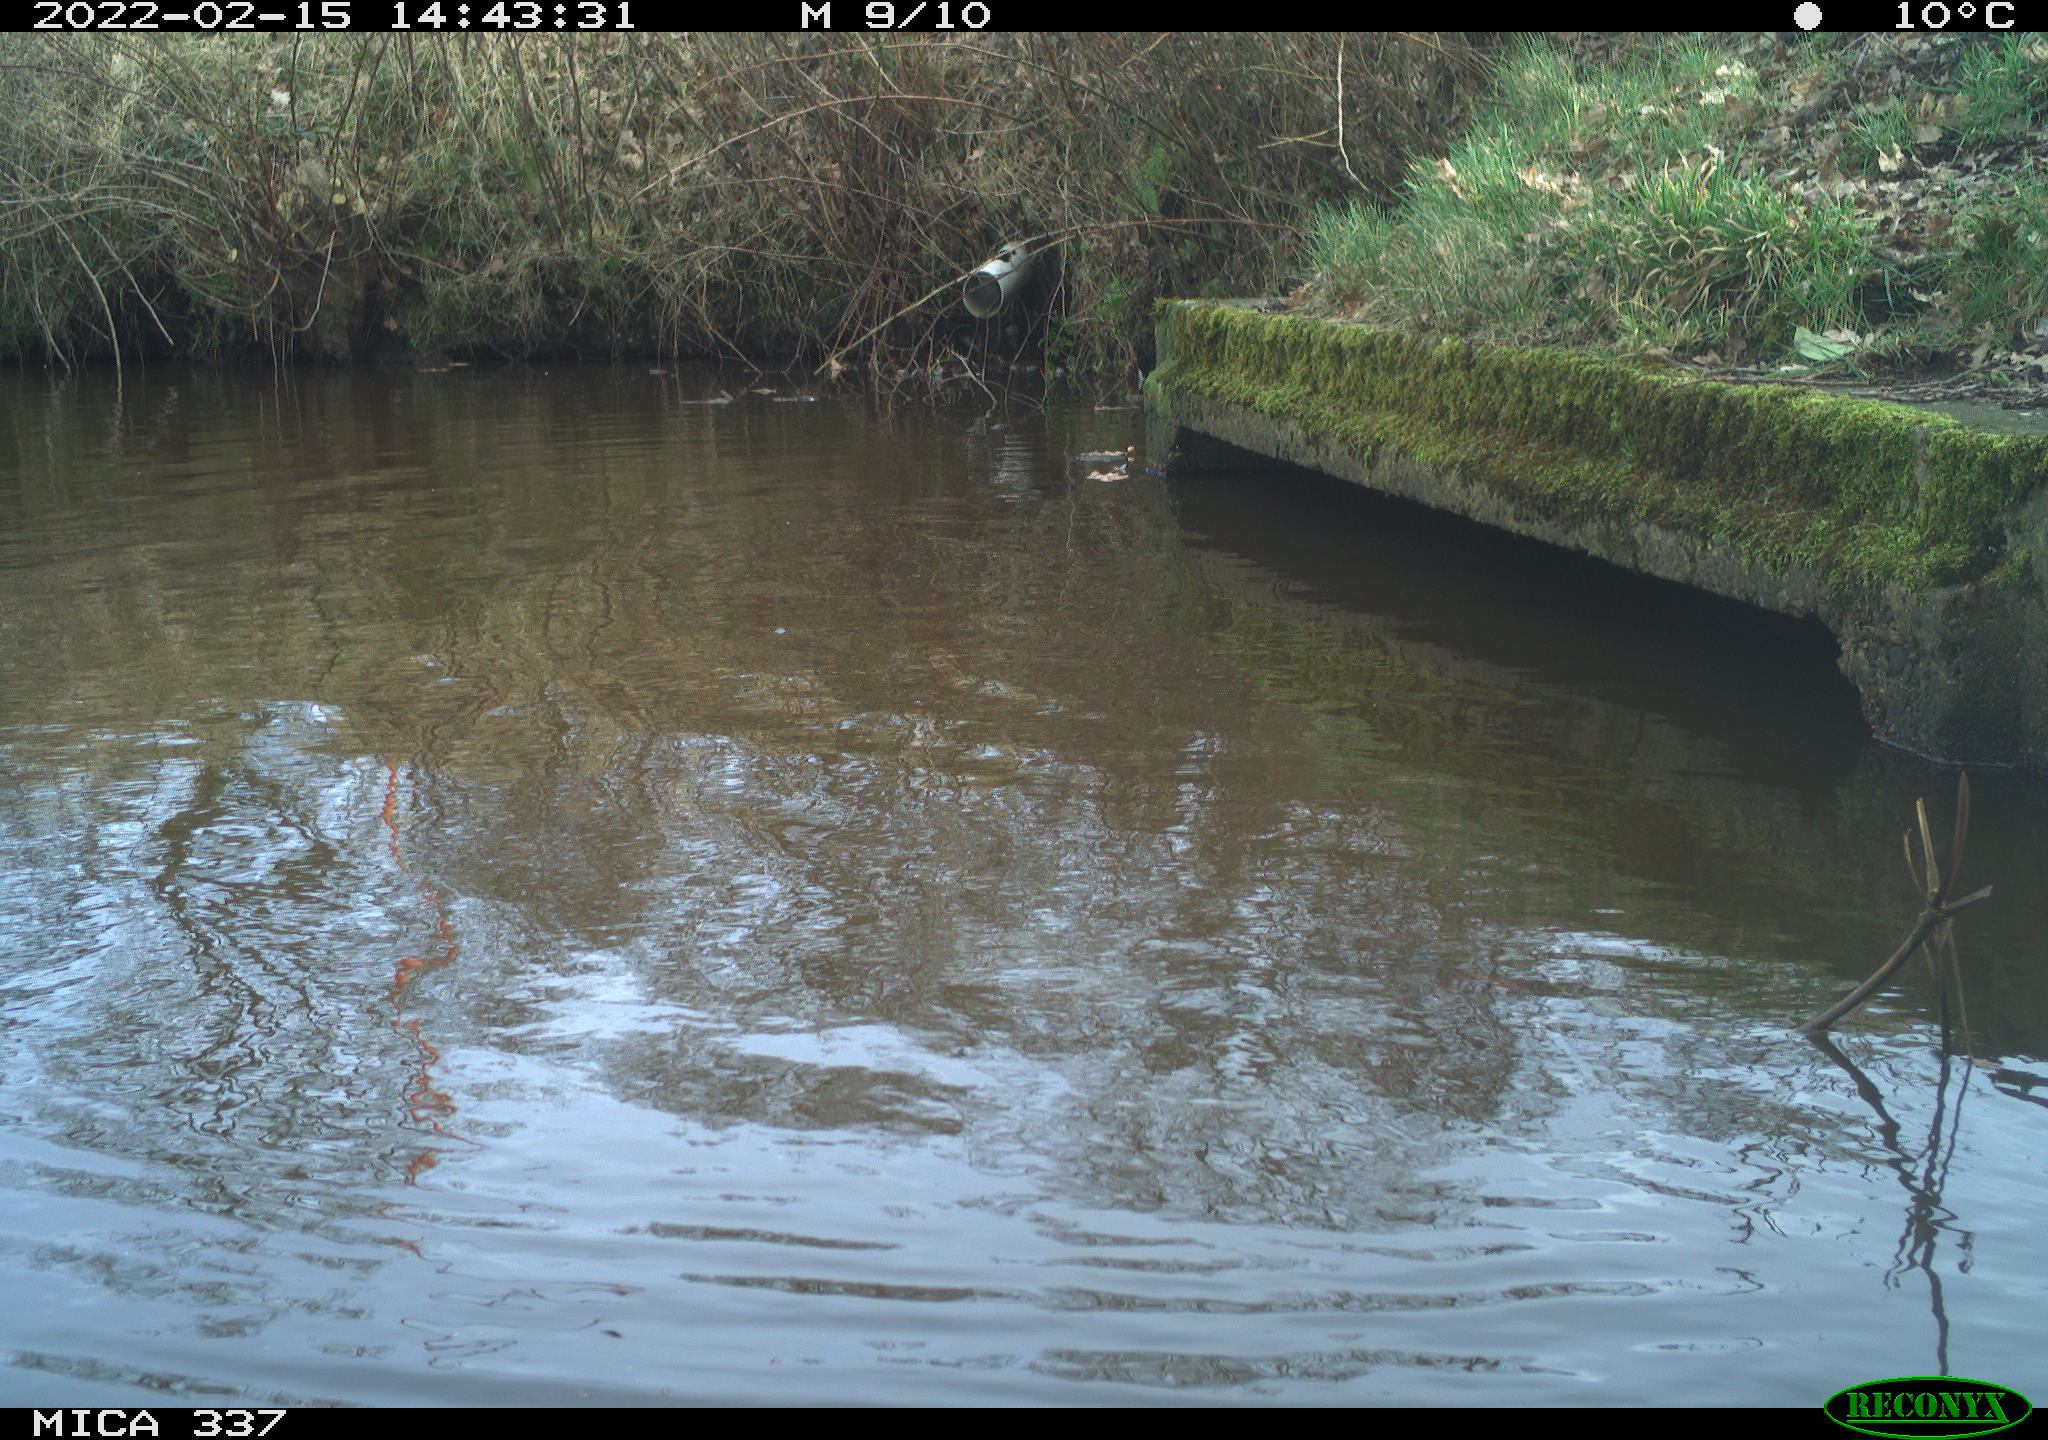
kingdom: Animalia
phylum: Chordata
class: Aves
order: Anseriformes
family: Anatidae
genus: Anas
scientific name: Anas platyrhynchos
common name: Mallard
